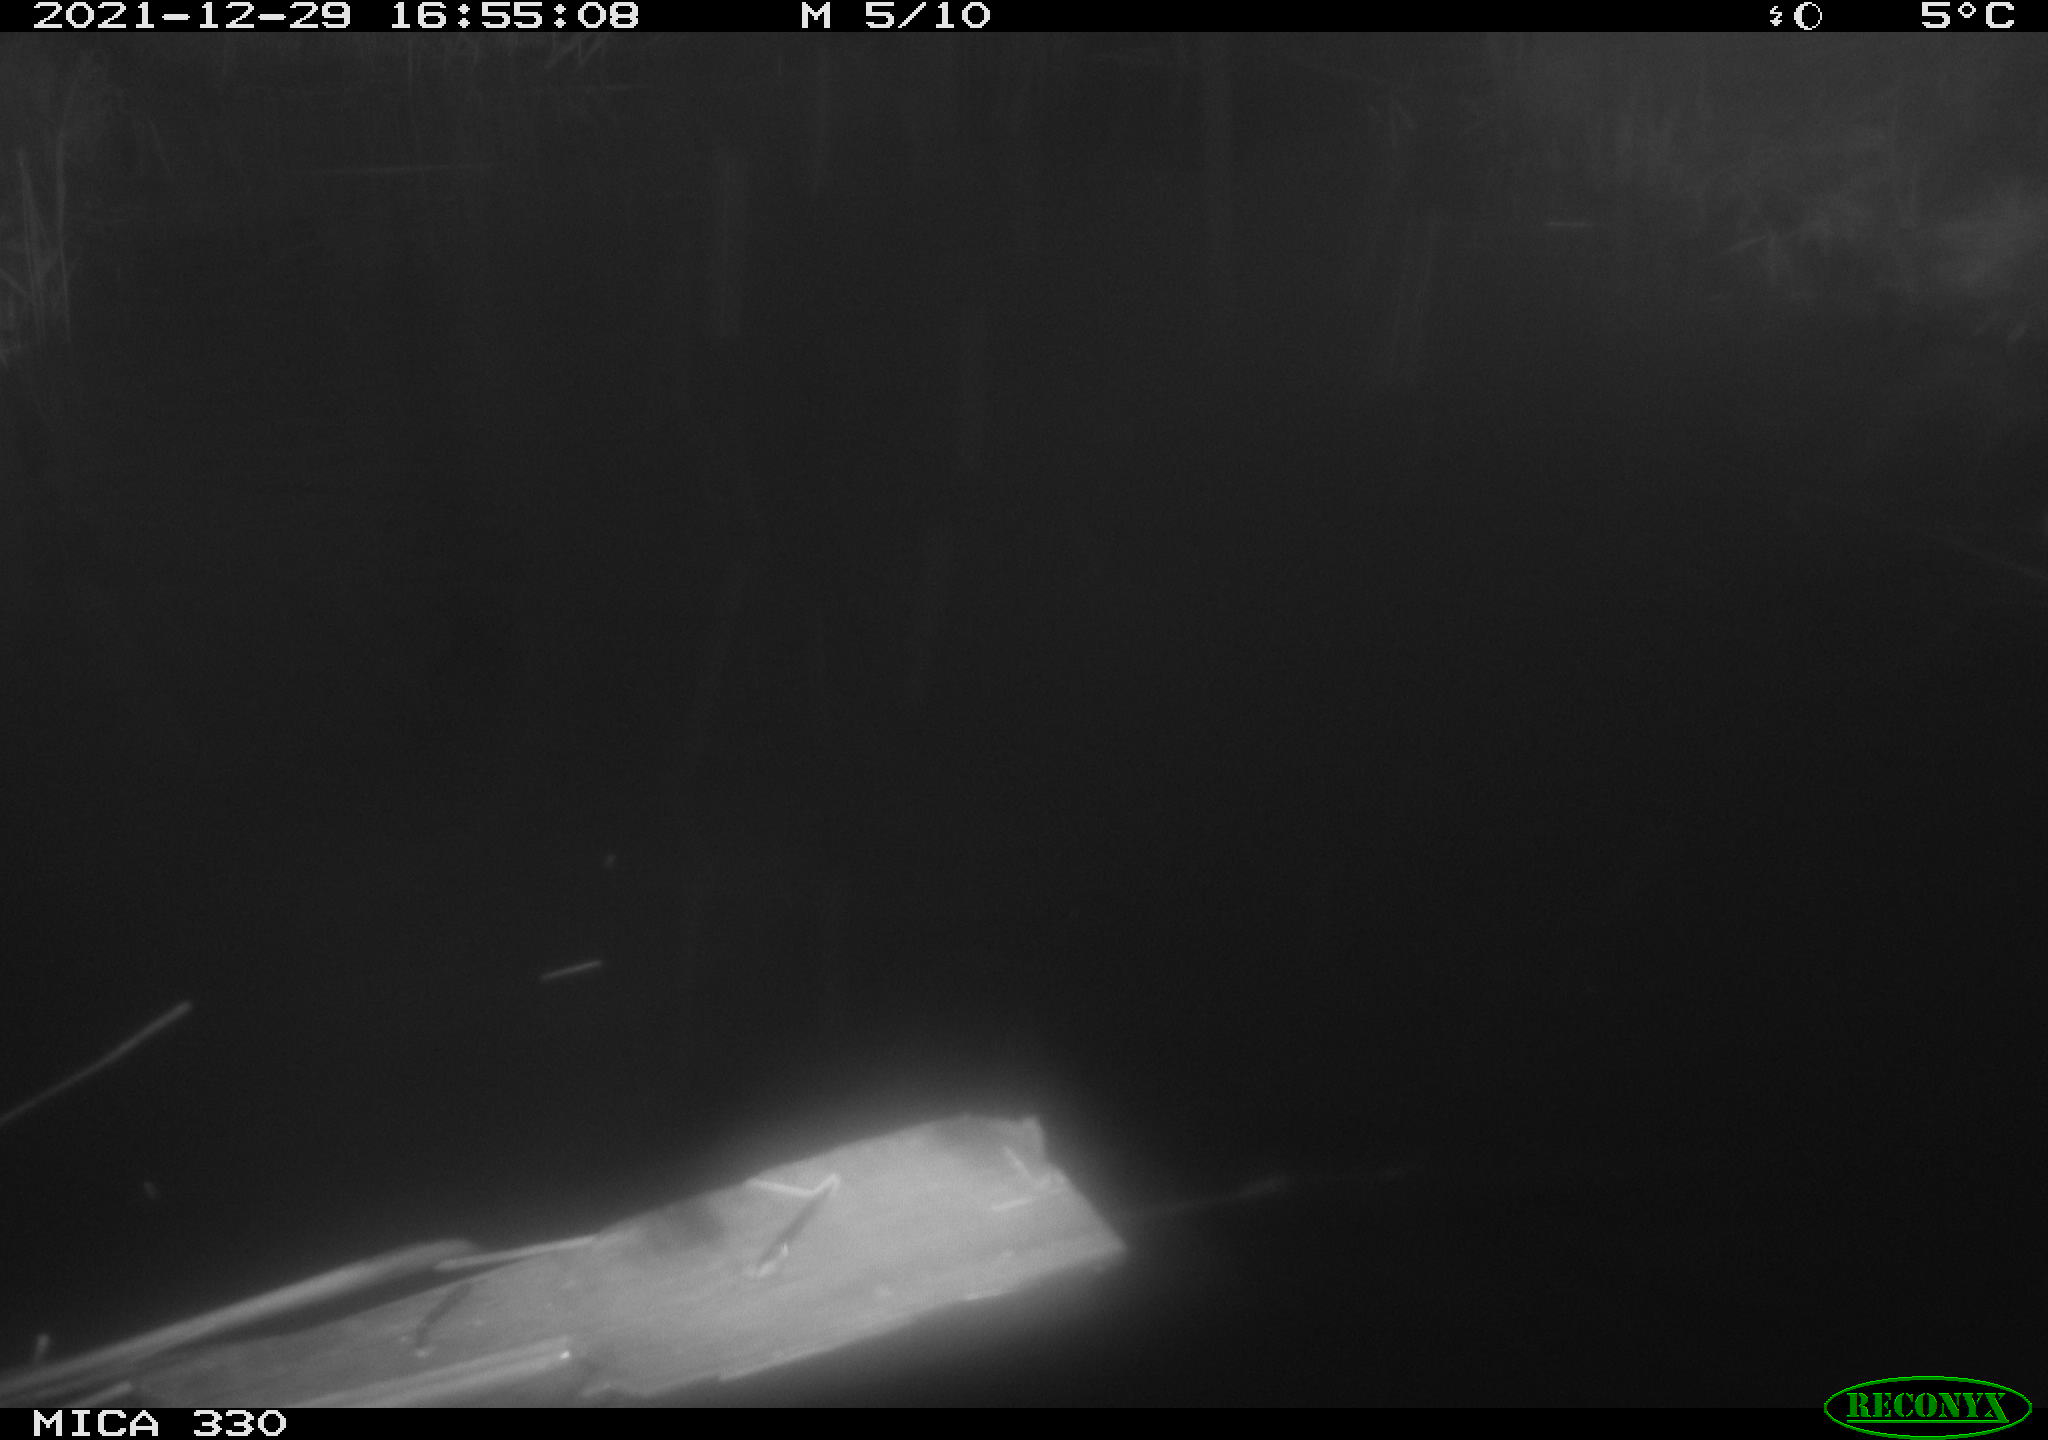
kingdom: Animalia
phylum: Chordata
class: Aves
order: Gruiformes
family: Rallidae
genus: Gallinula
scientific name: Gallinula chloropus
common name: Common moorhen
